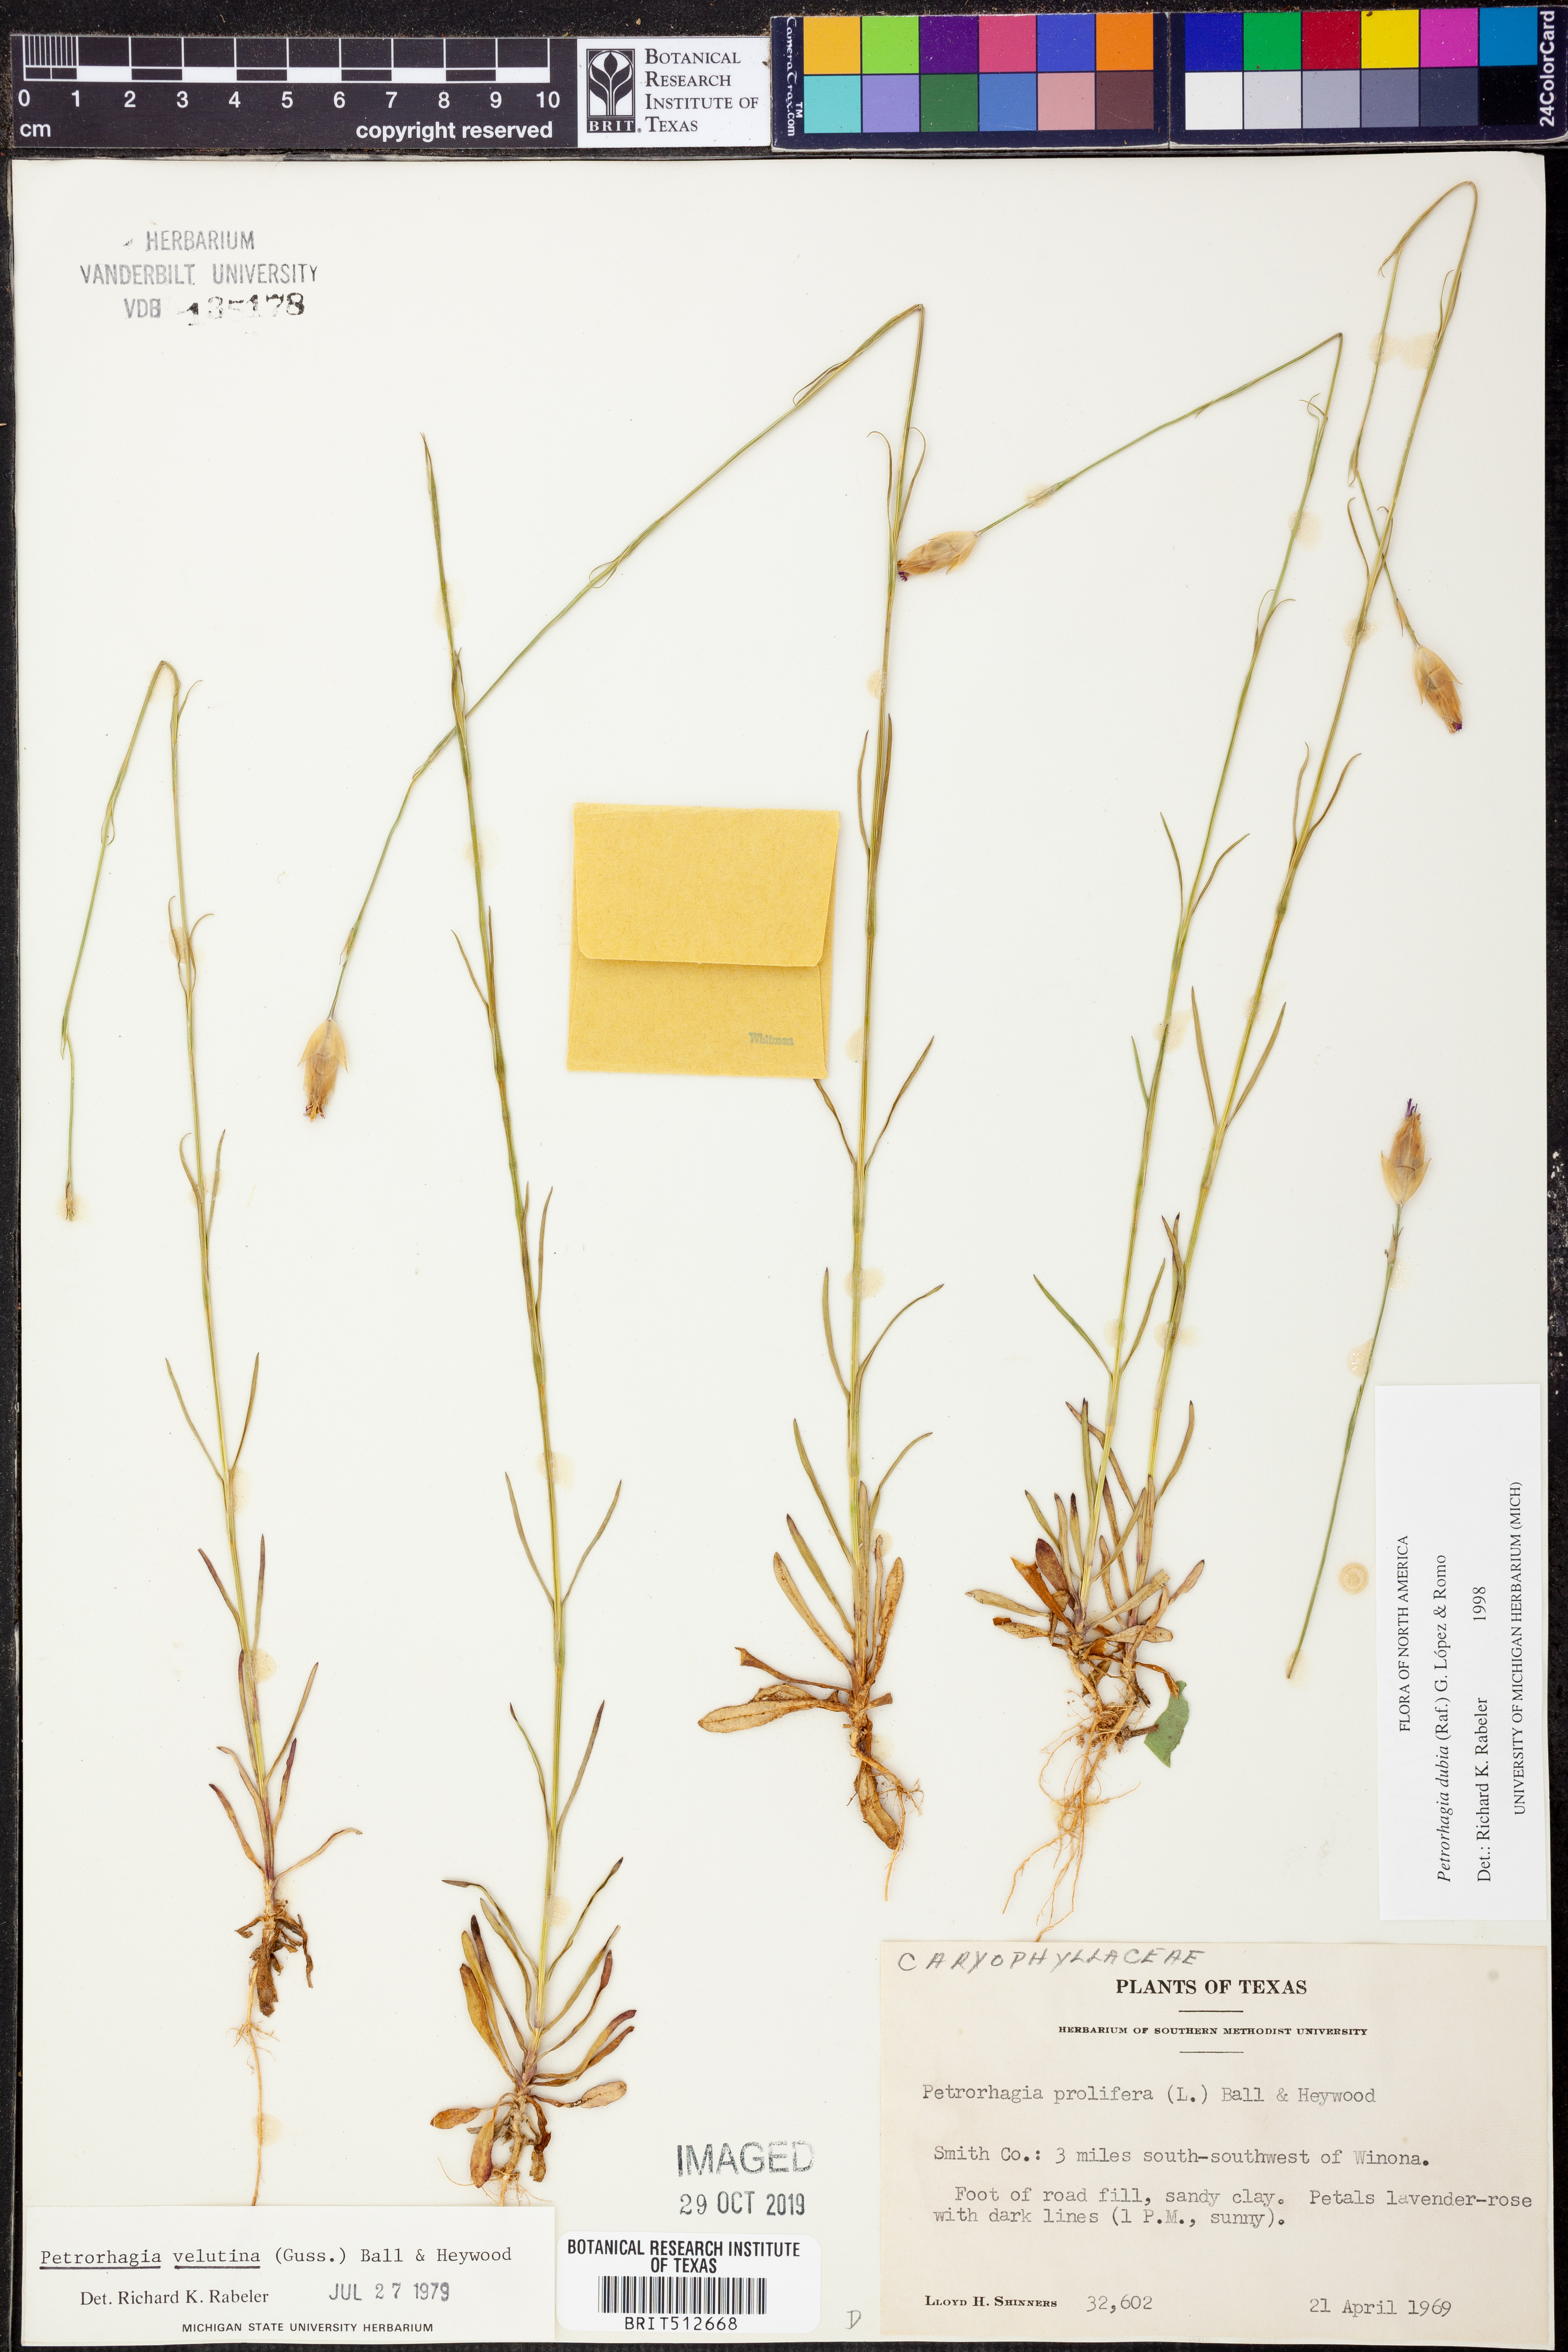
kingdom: Plantae
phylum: Tracheophyta
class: Magnoliopsida
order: Caryophyllales
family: Caryophyllaceae
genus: Petrorhagia
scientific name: Petrorhagia dubia
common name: Hairypink
